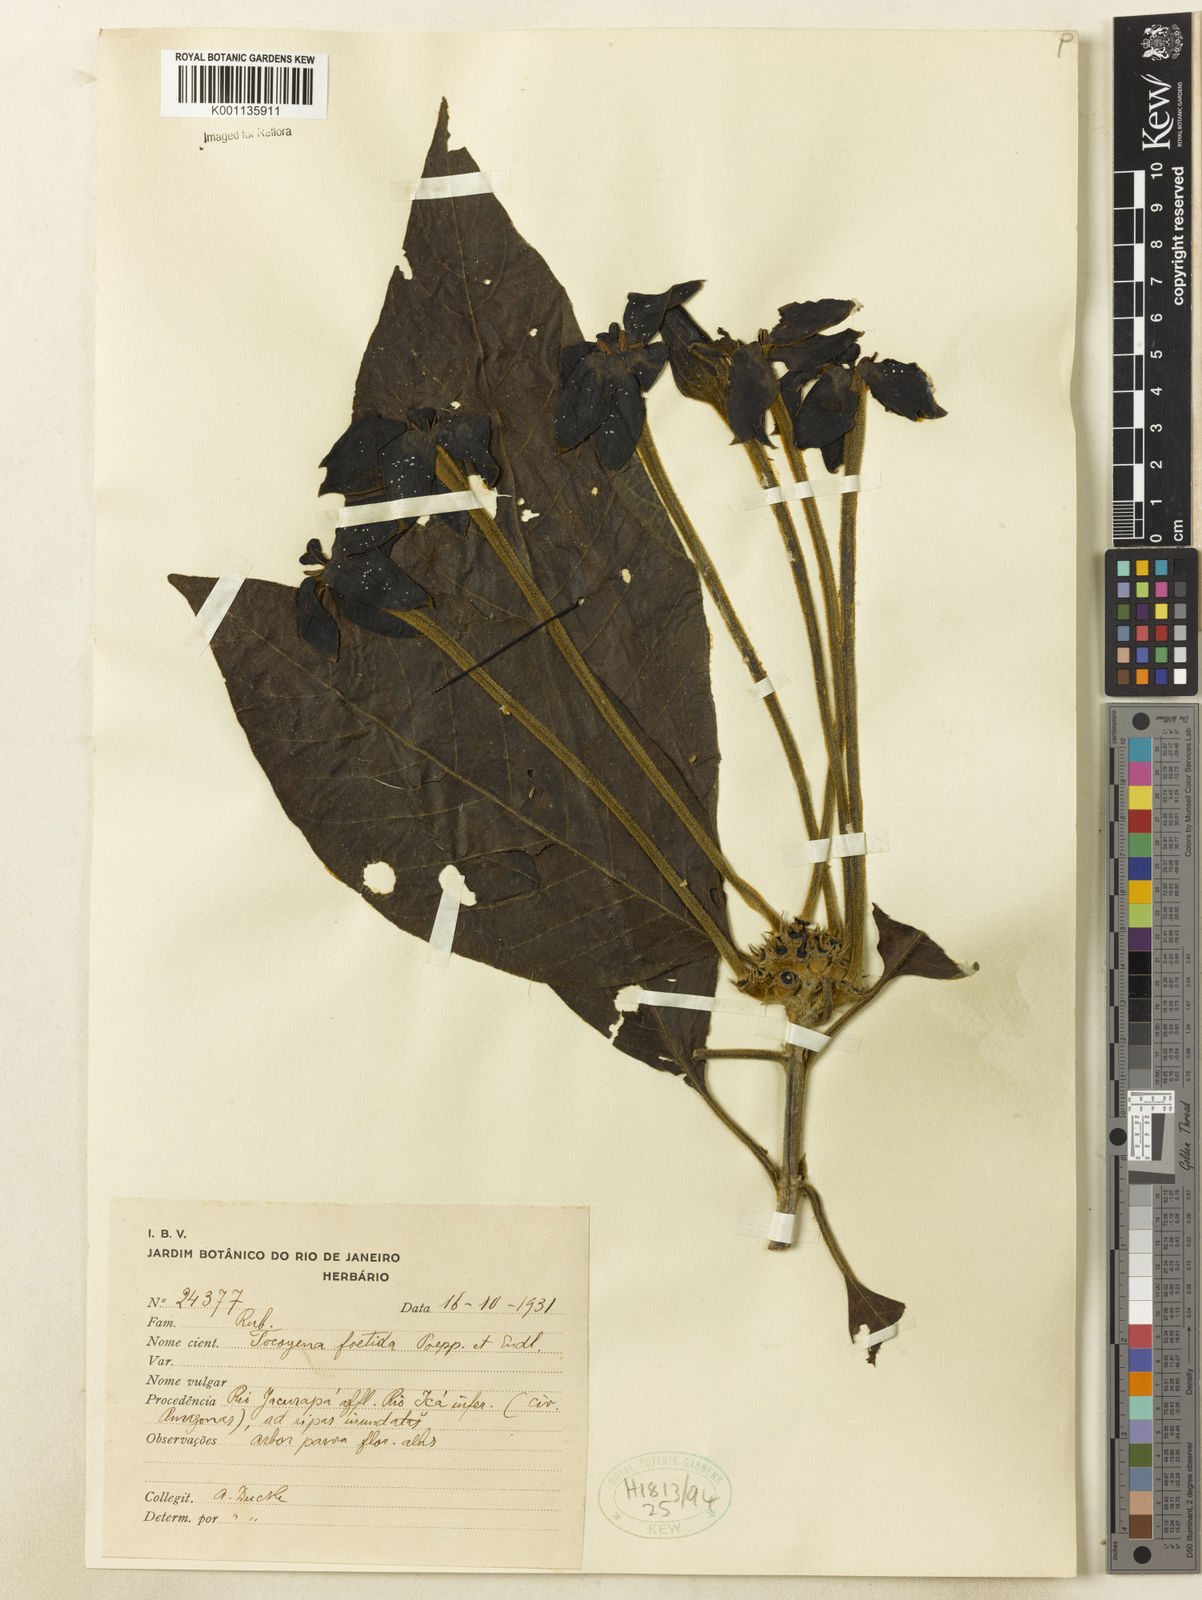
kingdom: Plantae
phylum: Tracheophyta
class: Magnoliopsida
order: Gentianales
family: Rubiaceae
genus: Tocoyena
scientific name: Tocoyena foetida
